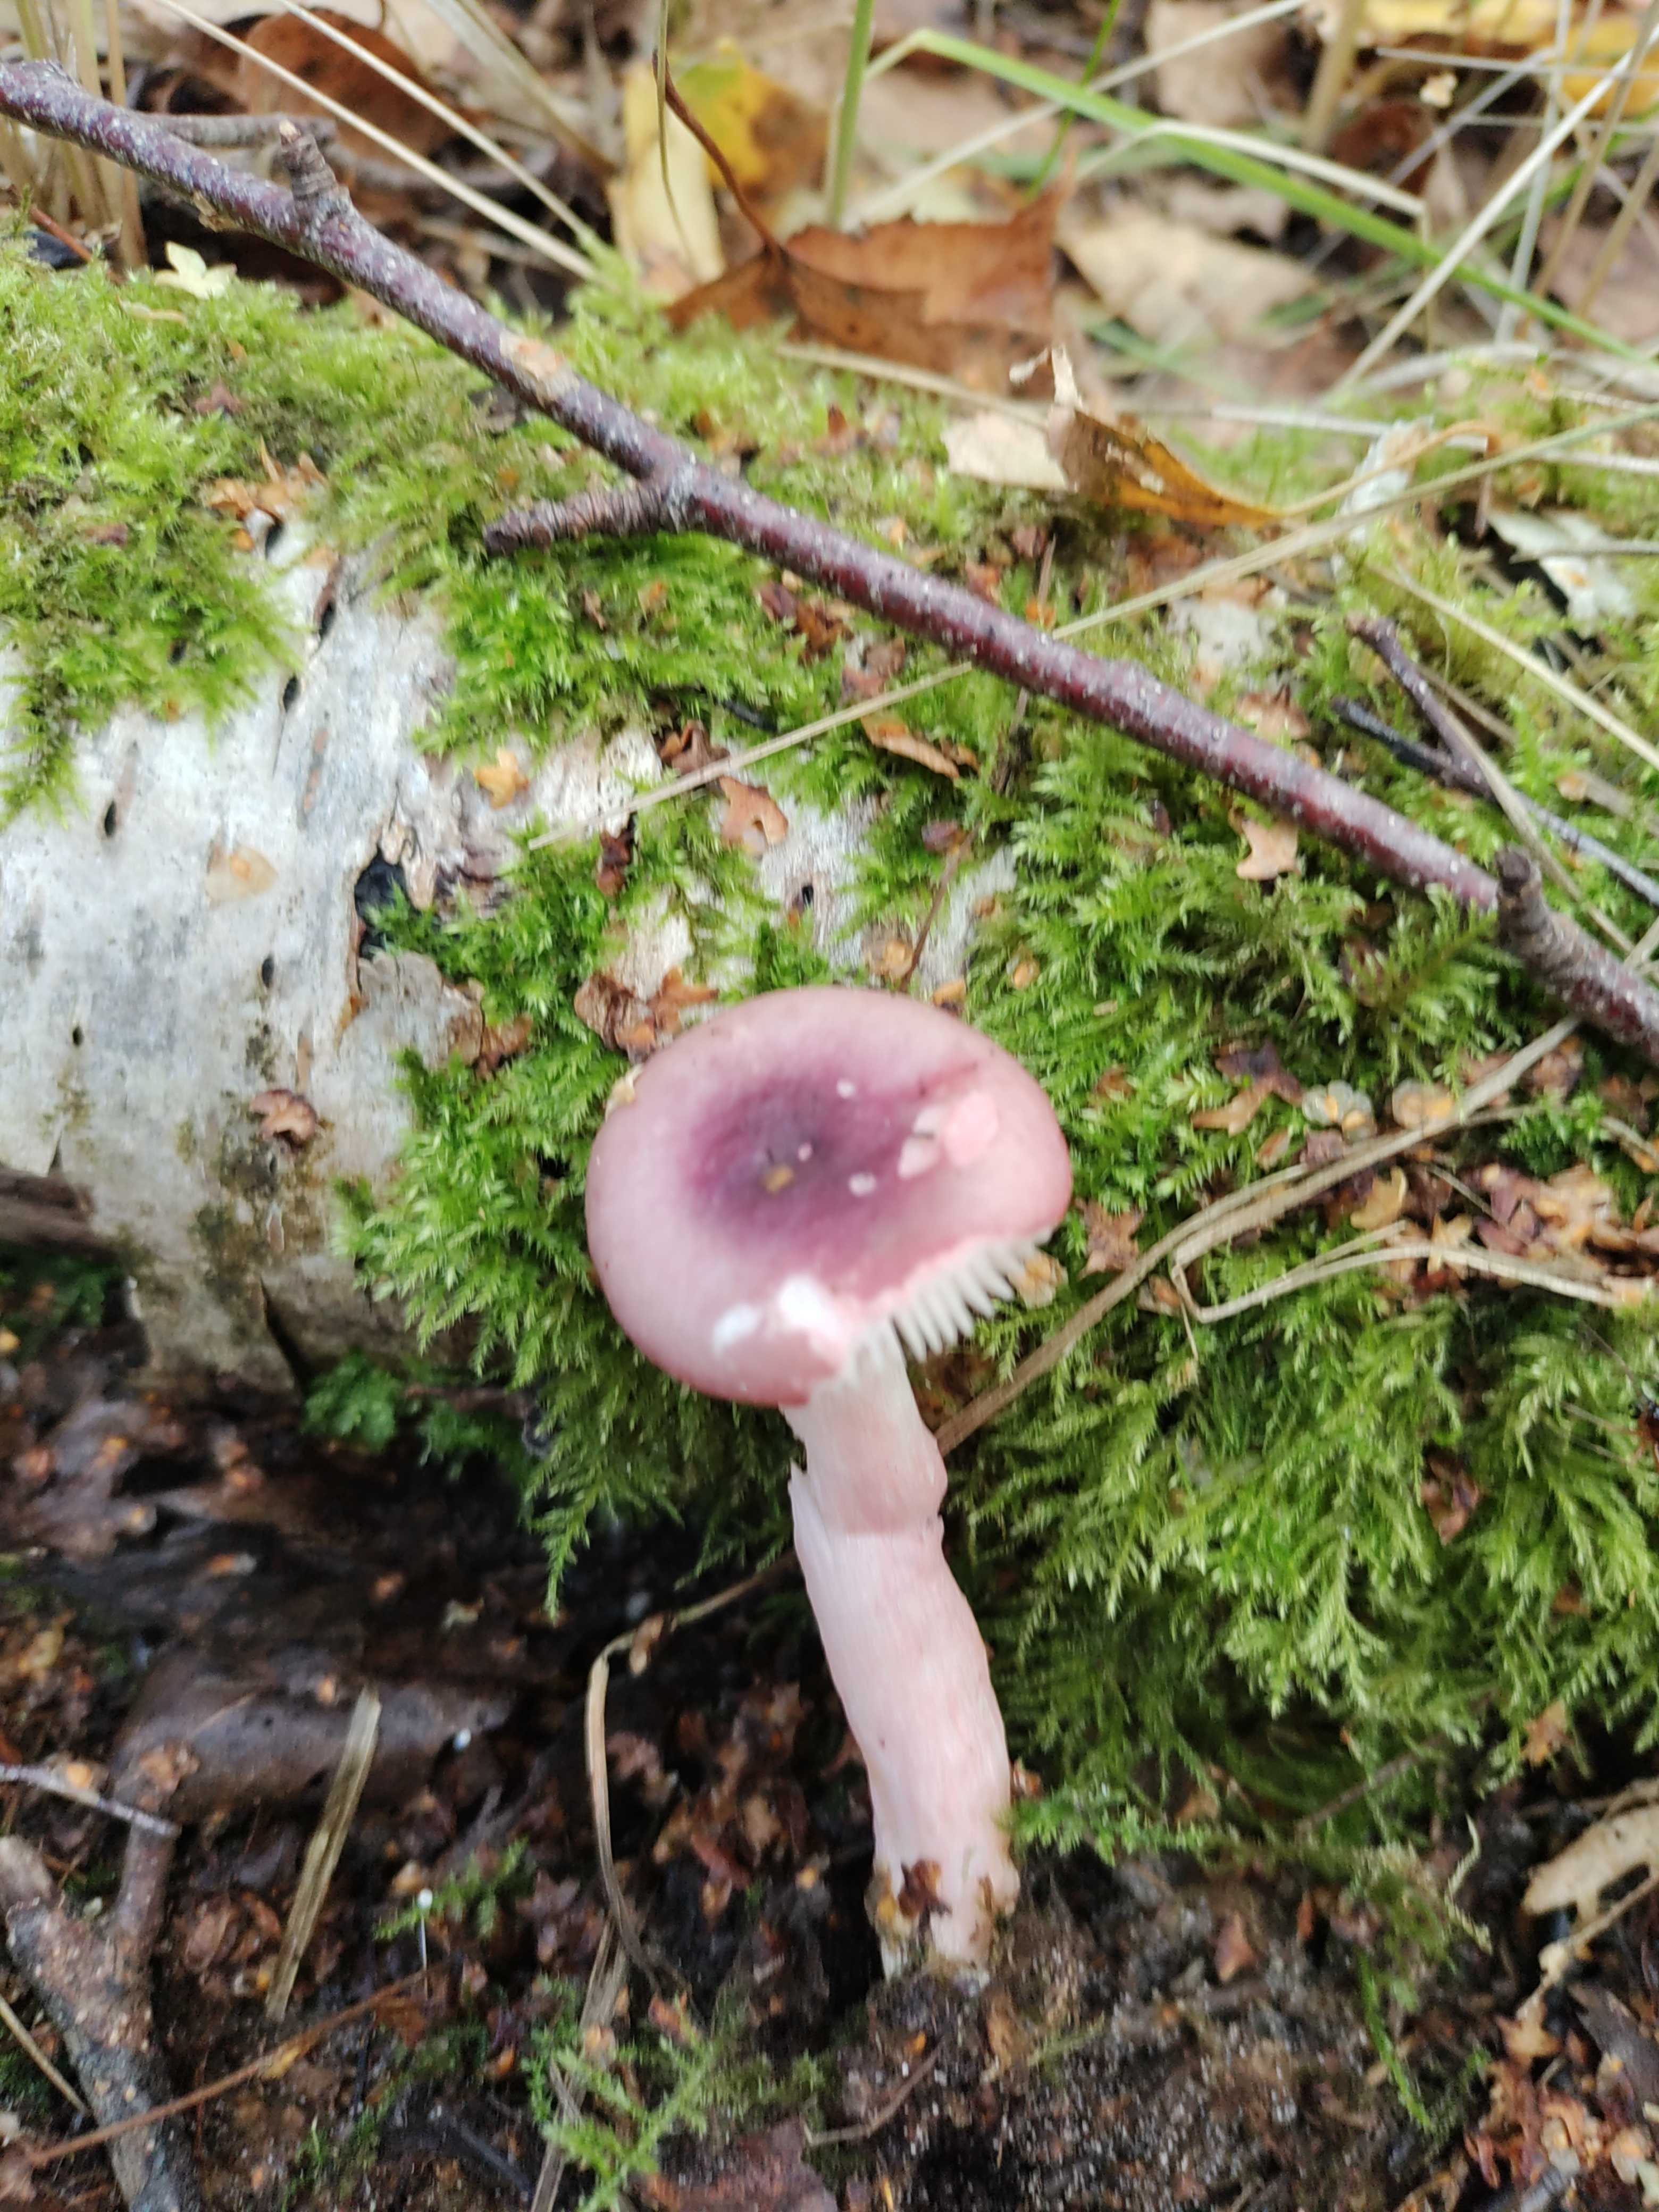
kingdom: Fungi
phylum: Basidiomycota
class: Agaricomycetes
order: Russulales
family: Russulaceae
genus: Russula
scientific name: Russula
